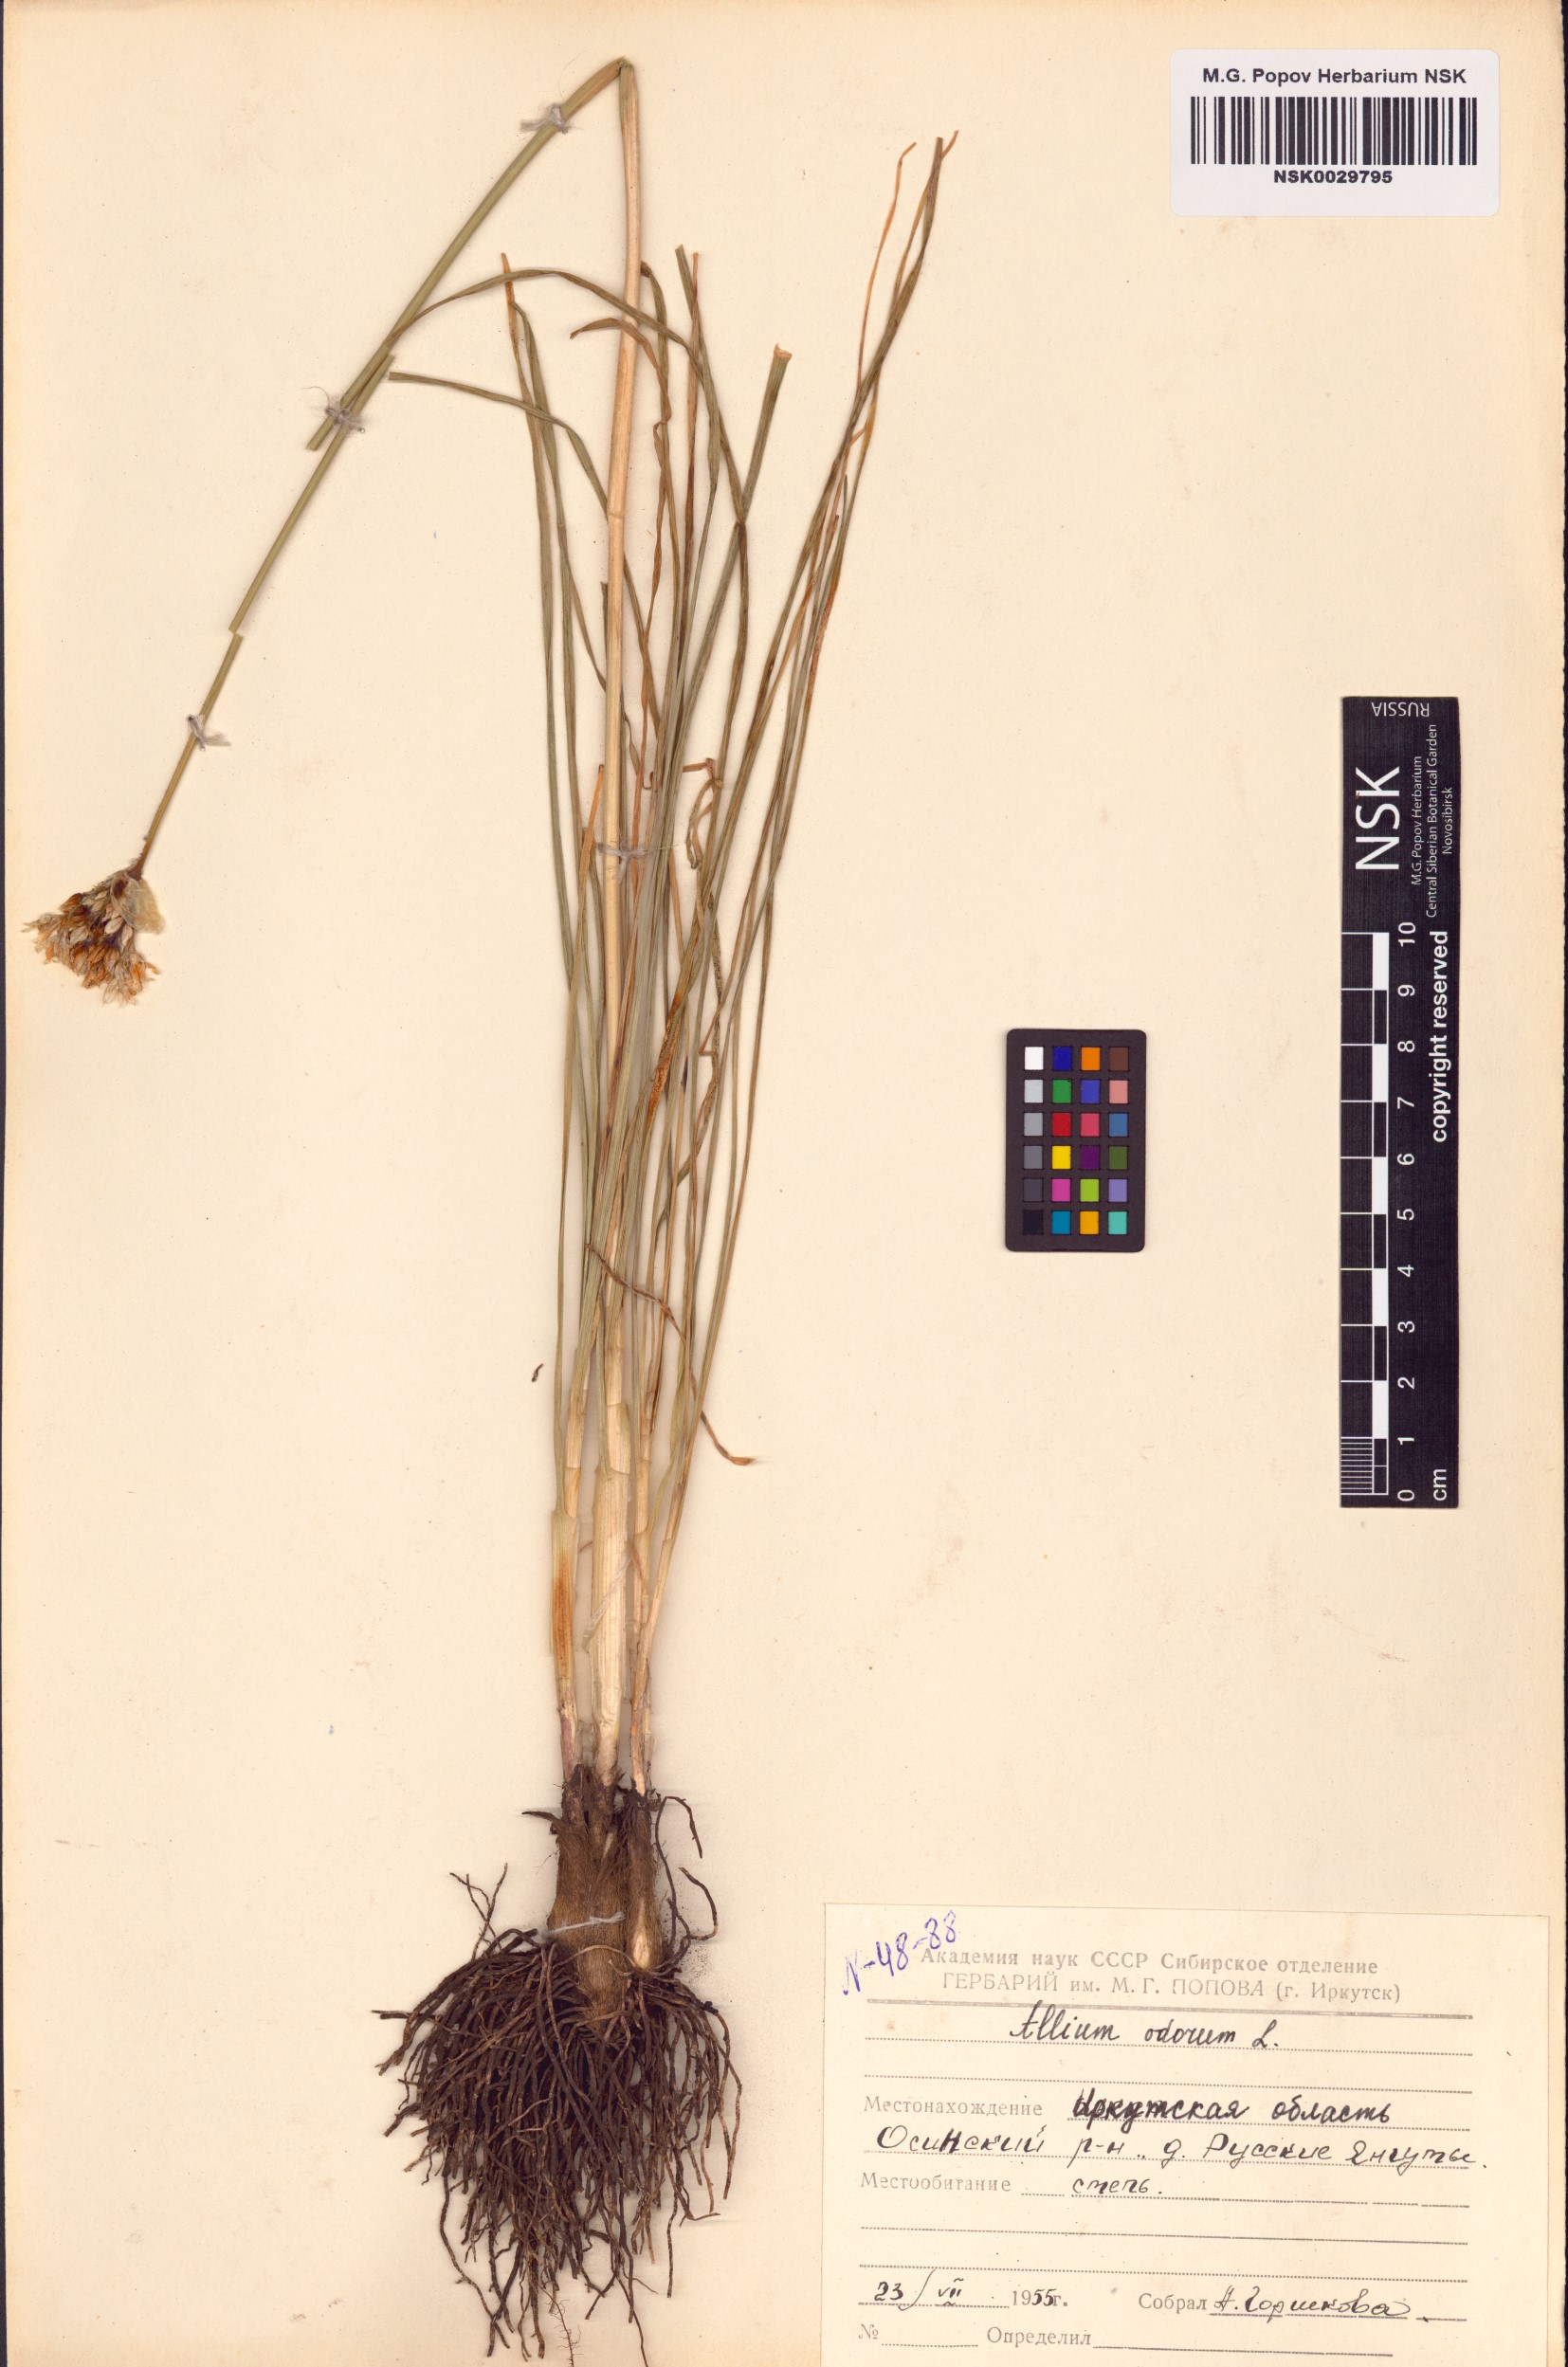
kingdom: Plantae
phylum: Tracheophyta
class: Liliopsida
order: Asparagales
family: Amaryllidaceae
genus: Allium
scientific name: Allium ramosum
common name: Fragrant garlic
